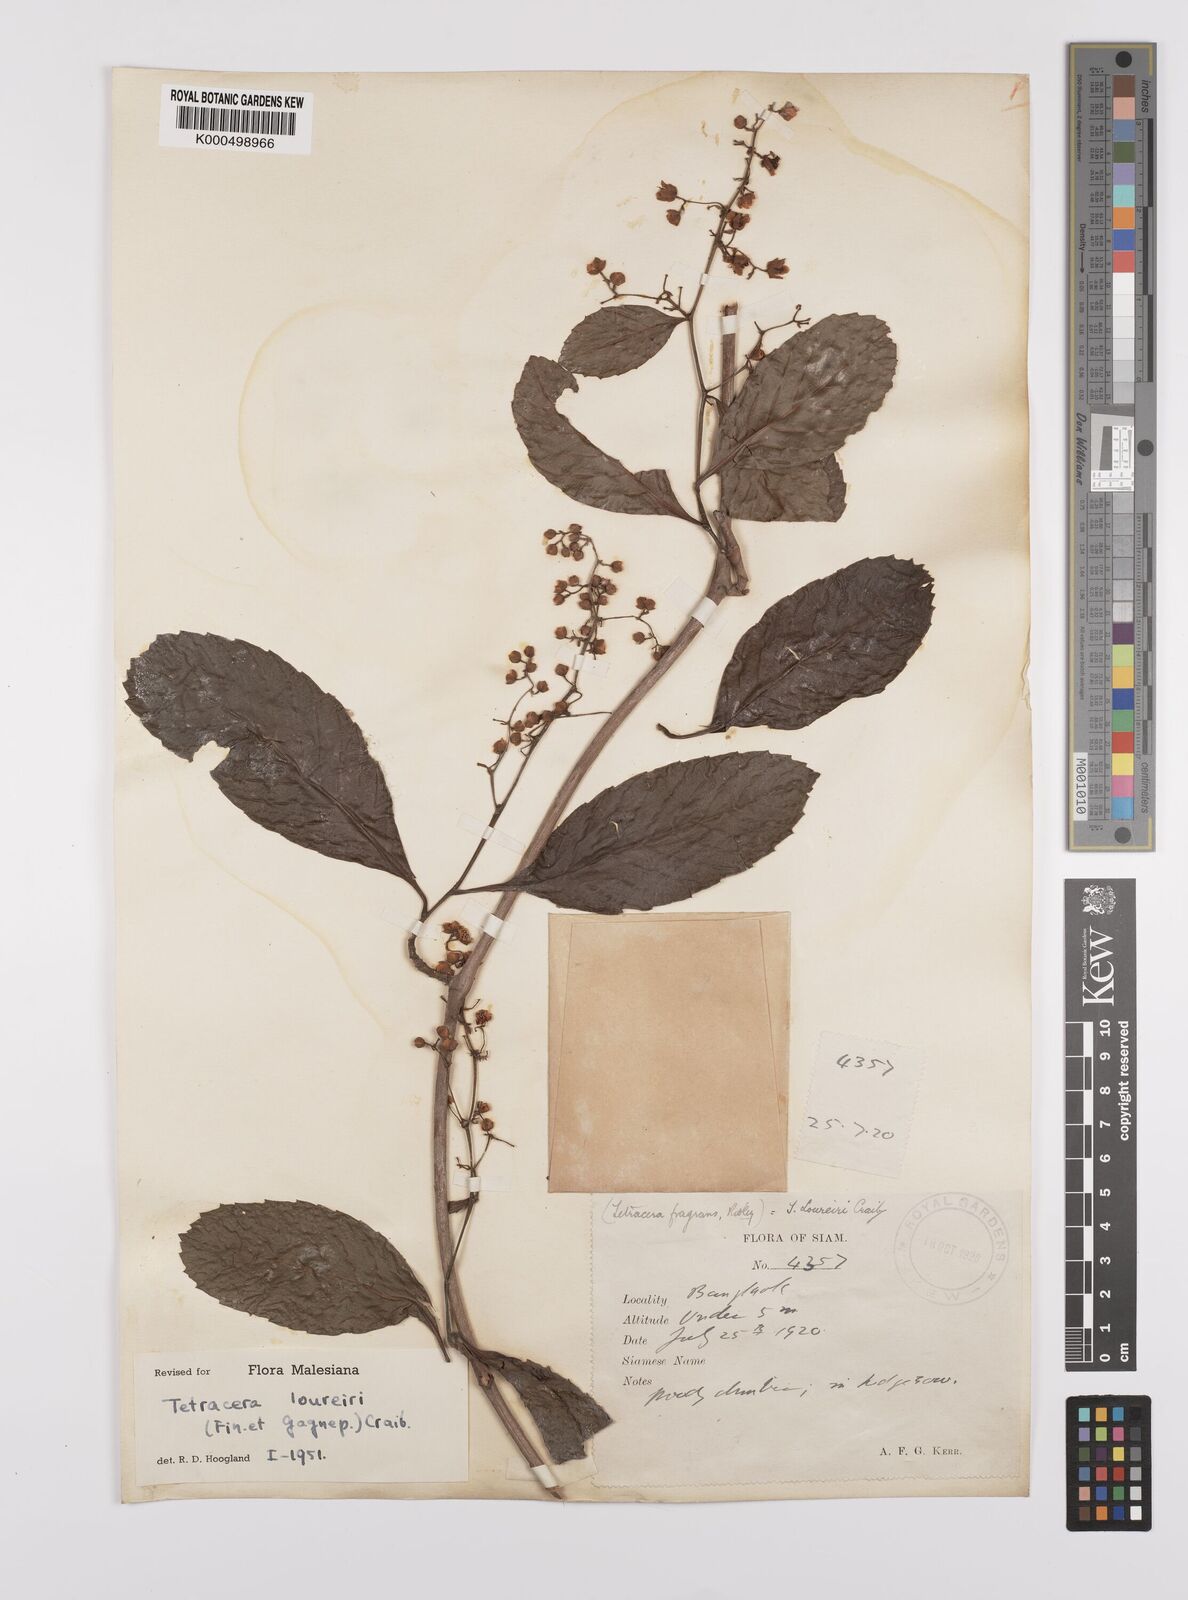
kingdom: Plantae
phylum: Tracheophyta
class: Magnoliopsida
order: Dilleniales
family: Dilleniaceae
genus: Tetracera
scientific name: Tetracera scandens
